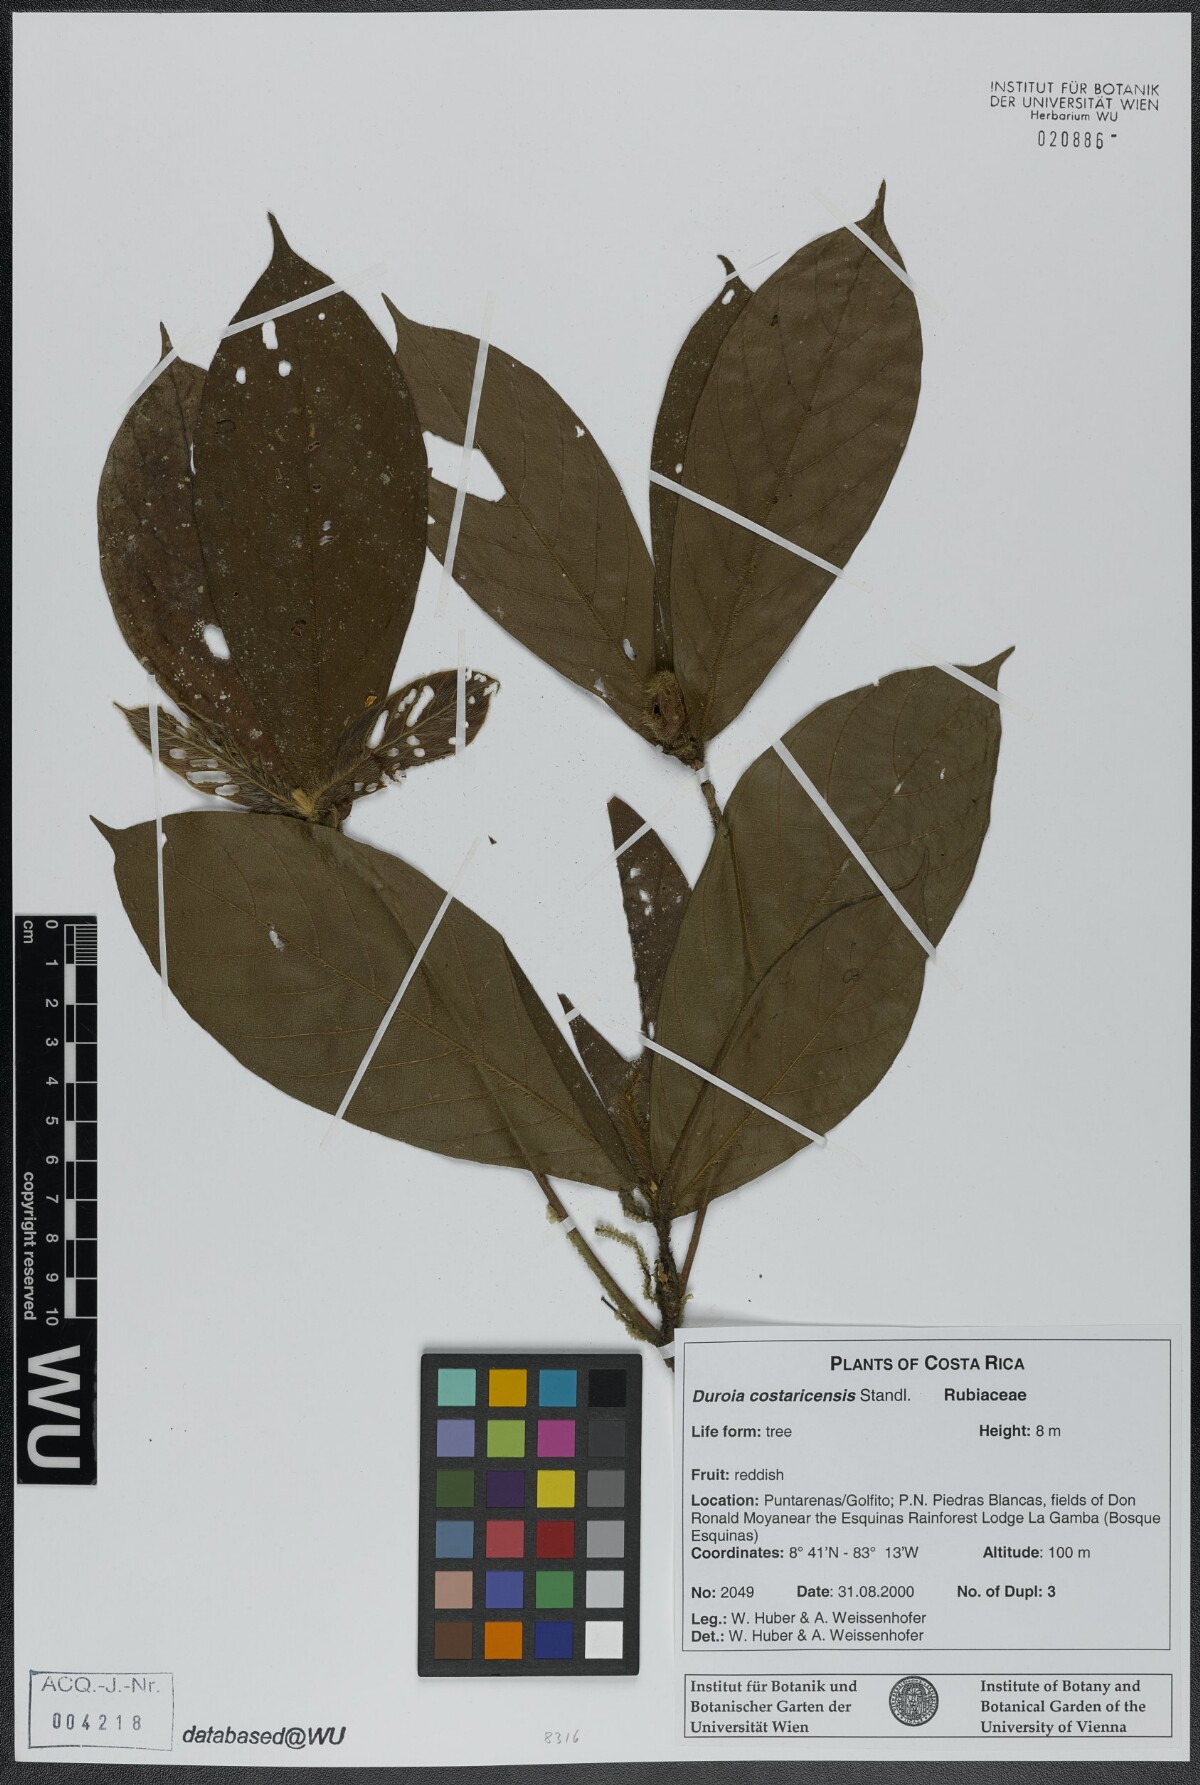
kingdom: Plantae
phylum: Tracheophyta
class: Magnoliopsida
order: Gentianales
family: Rubiaceae
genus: Duroia
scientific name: Duroia costaricensis
